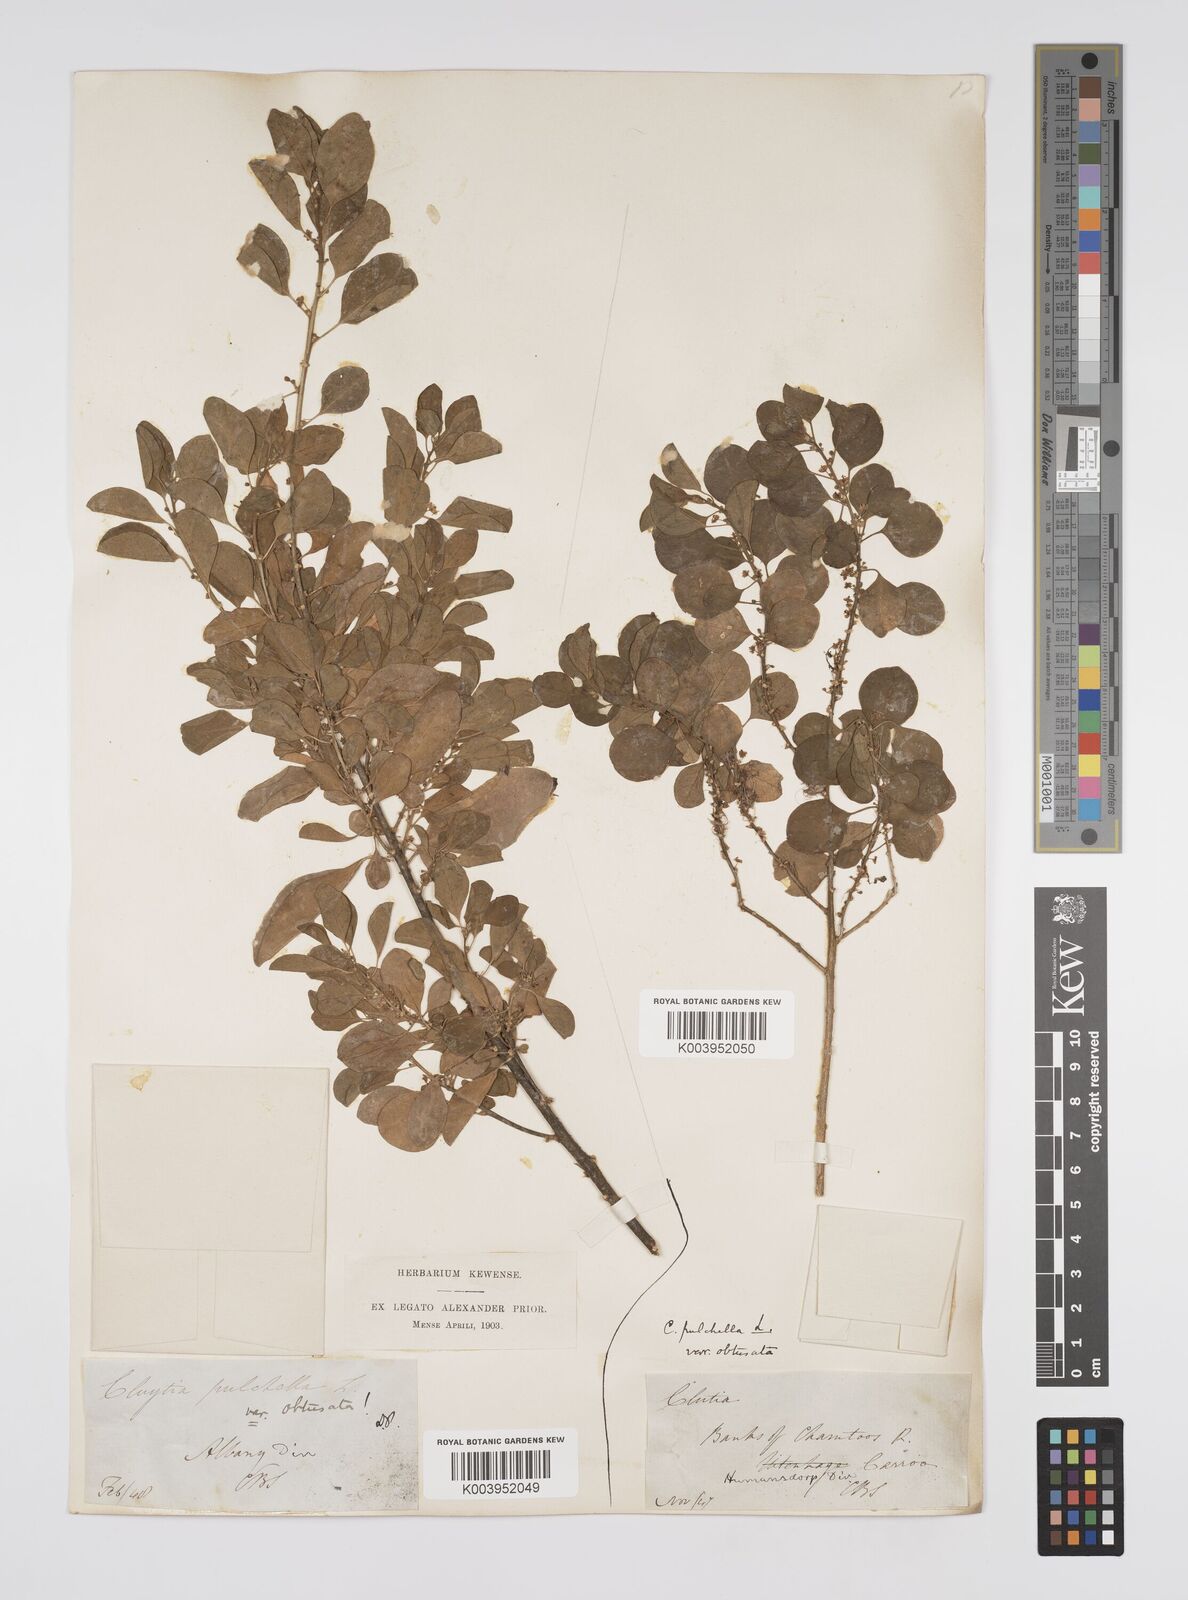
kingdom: Plantae
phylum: Tracheophyta
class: Magnoliopsida
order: Malpighiales
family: Peraceae
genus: Clutia
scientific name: Clutia pulchella
